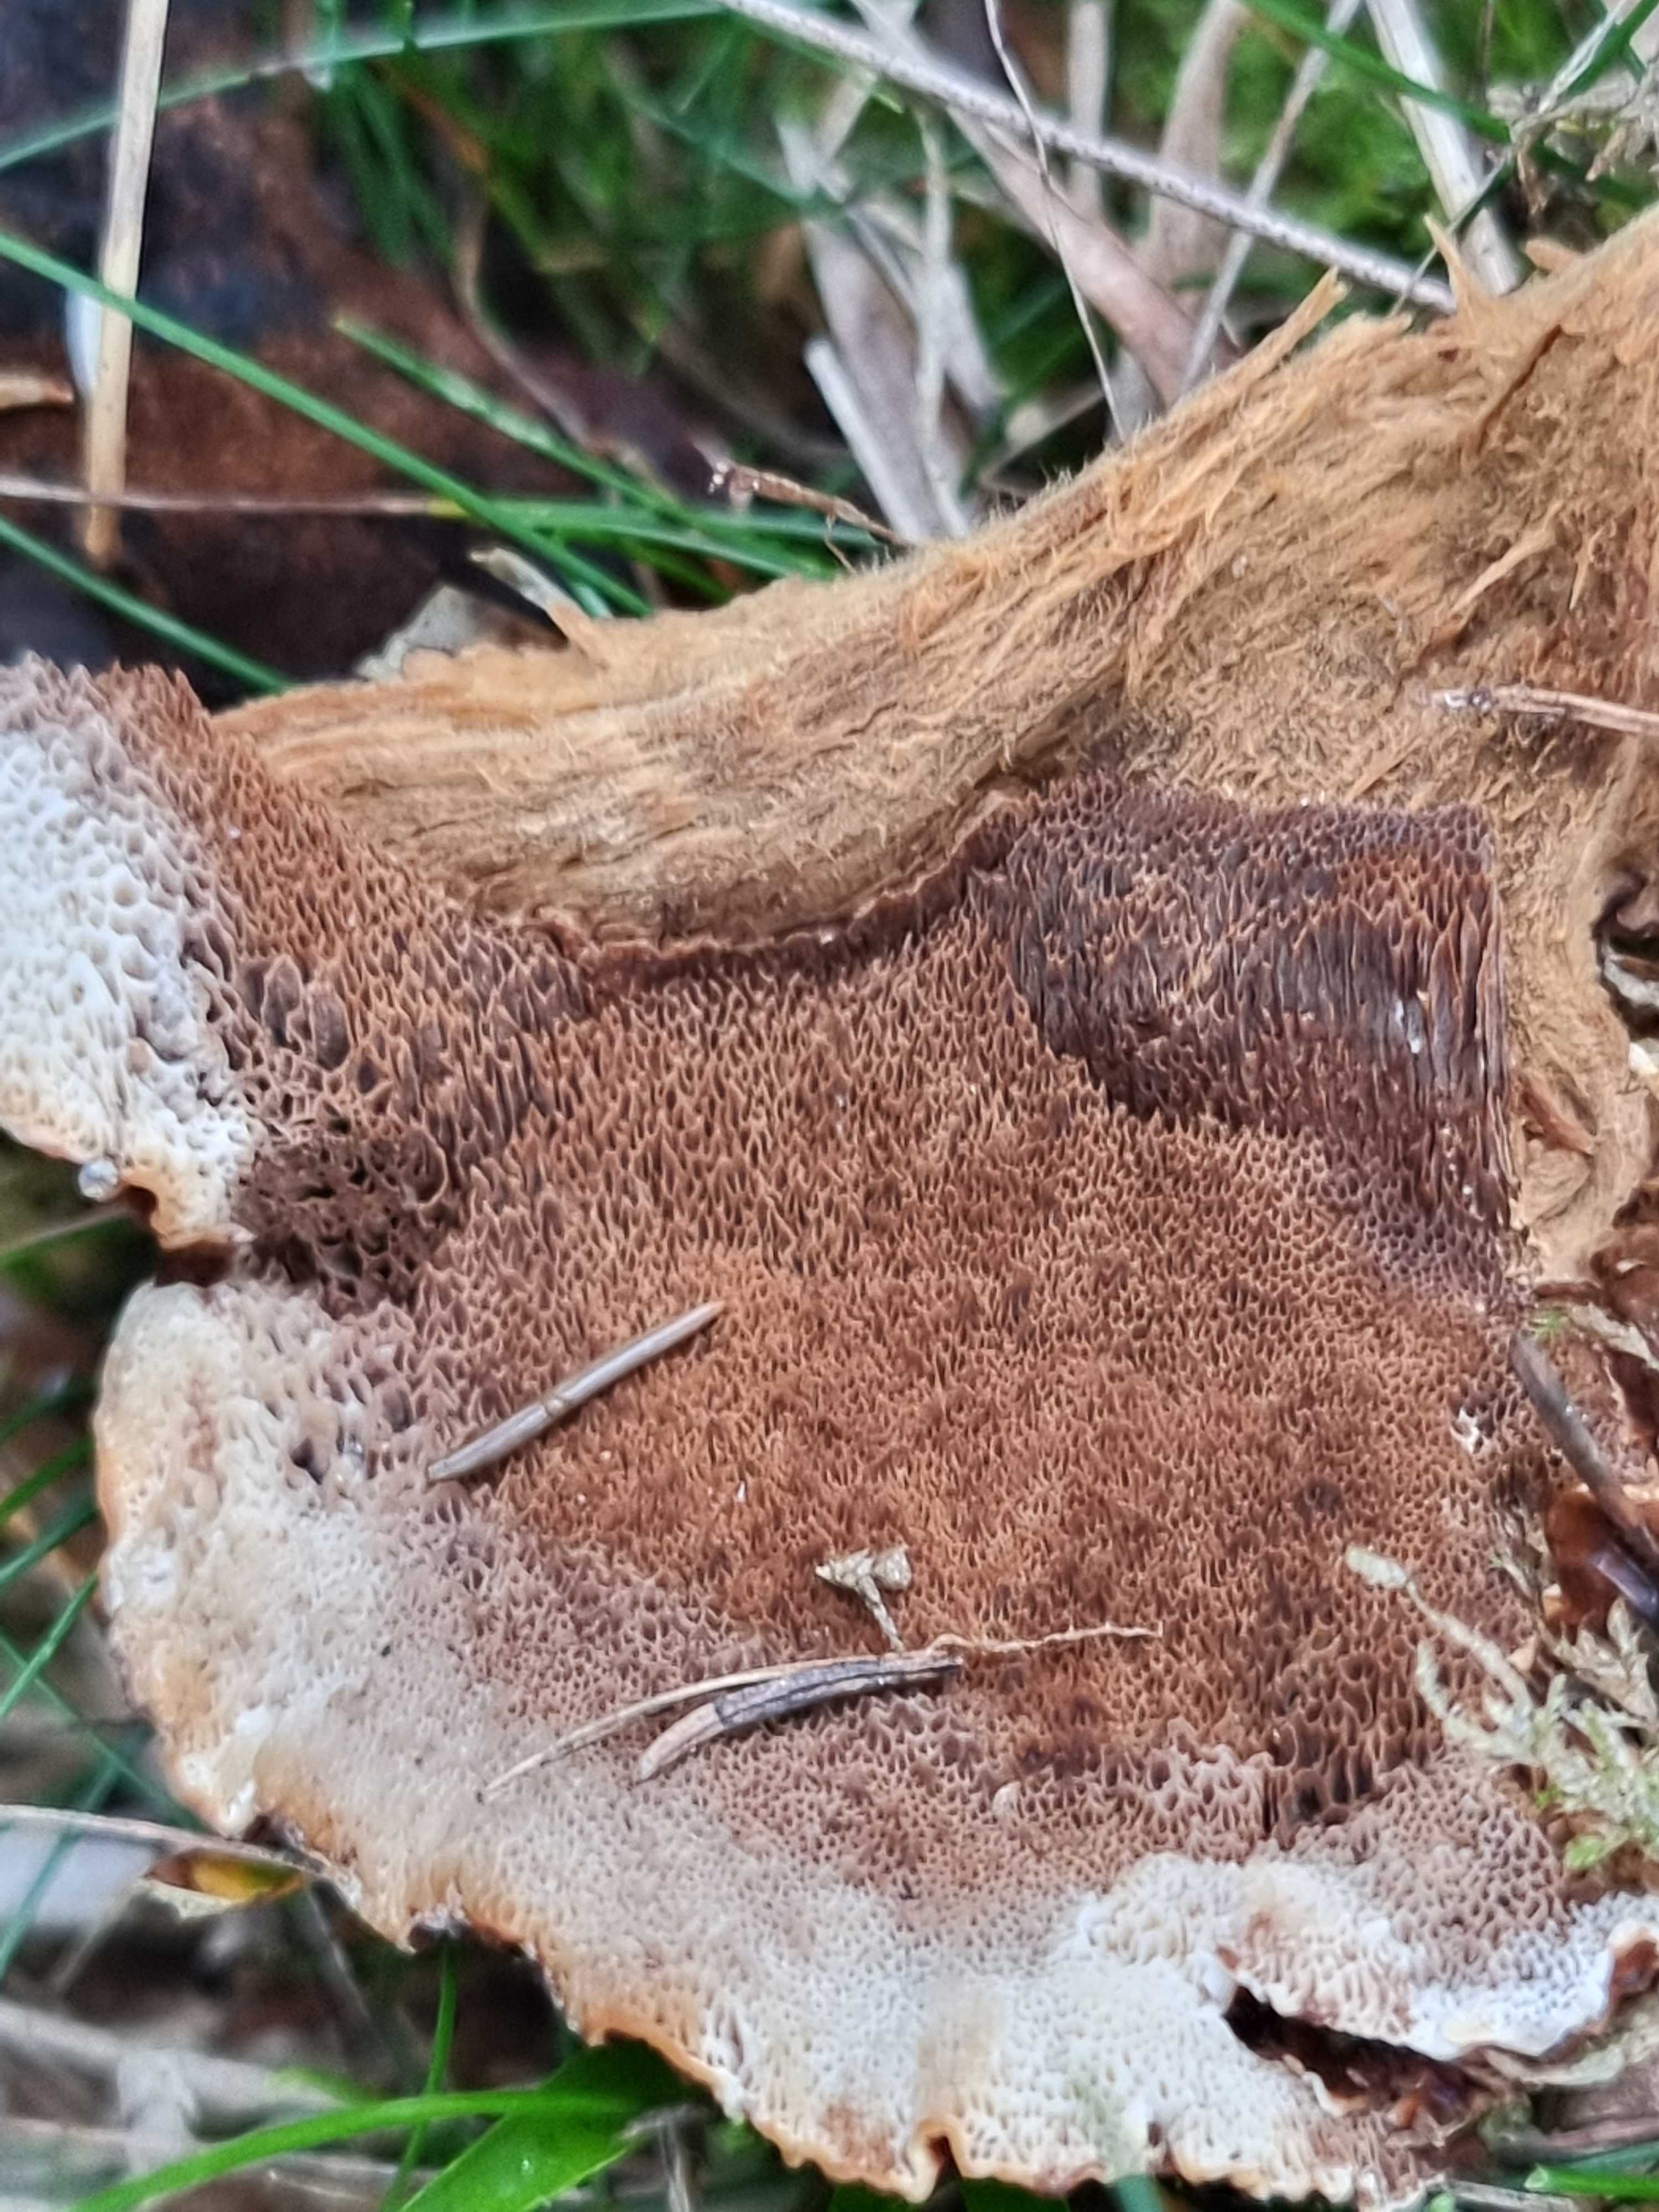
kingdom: Fungi
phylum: Basidiomycota
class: Agaricomycetes
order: Polyporales
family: Ischnodermataceae
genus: Ischnoderma
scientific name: Ischnoderma benzoinum
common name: gran-tjæreporesvamp
